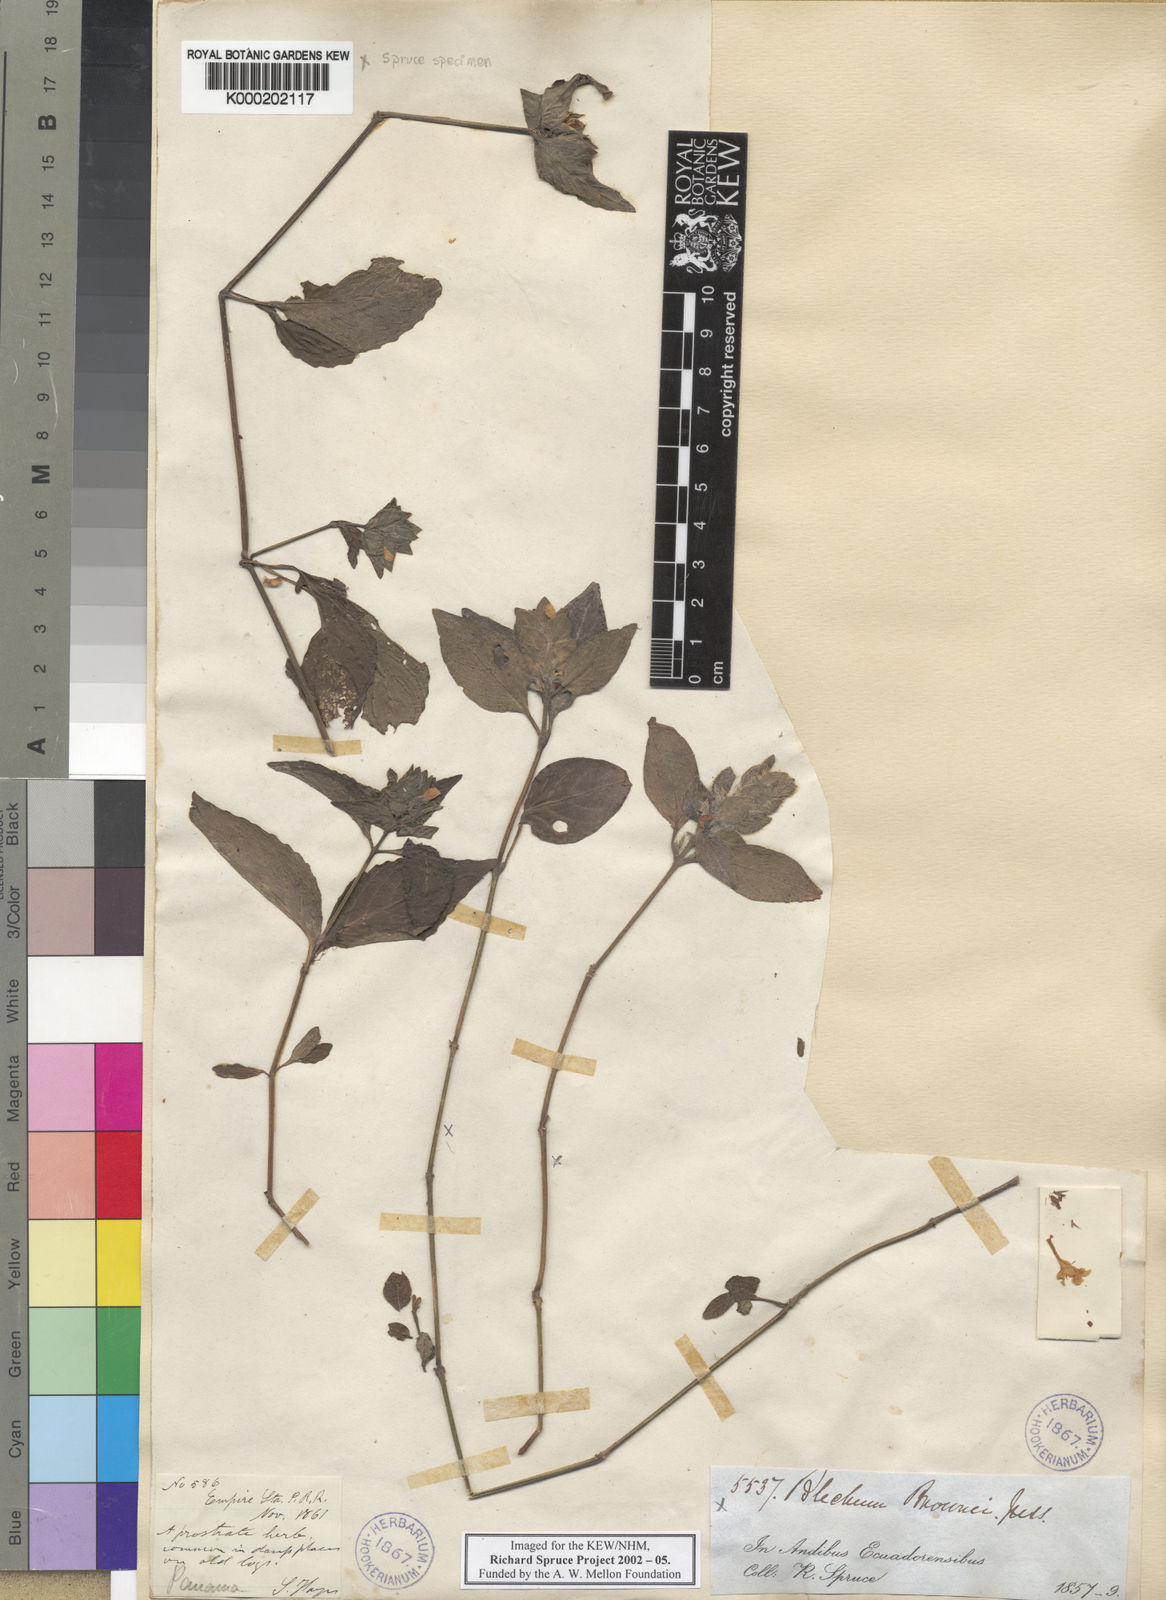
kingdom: Plantae
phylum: Tracheophyta
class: Magnoliopsida
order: Lamiales
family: Acanthaceae
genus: Ruellia
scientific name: Ruellia blechum
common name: Browne's blechum
